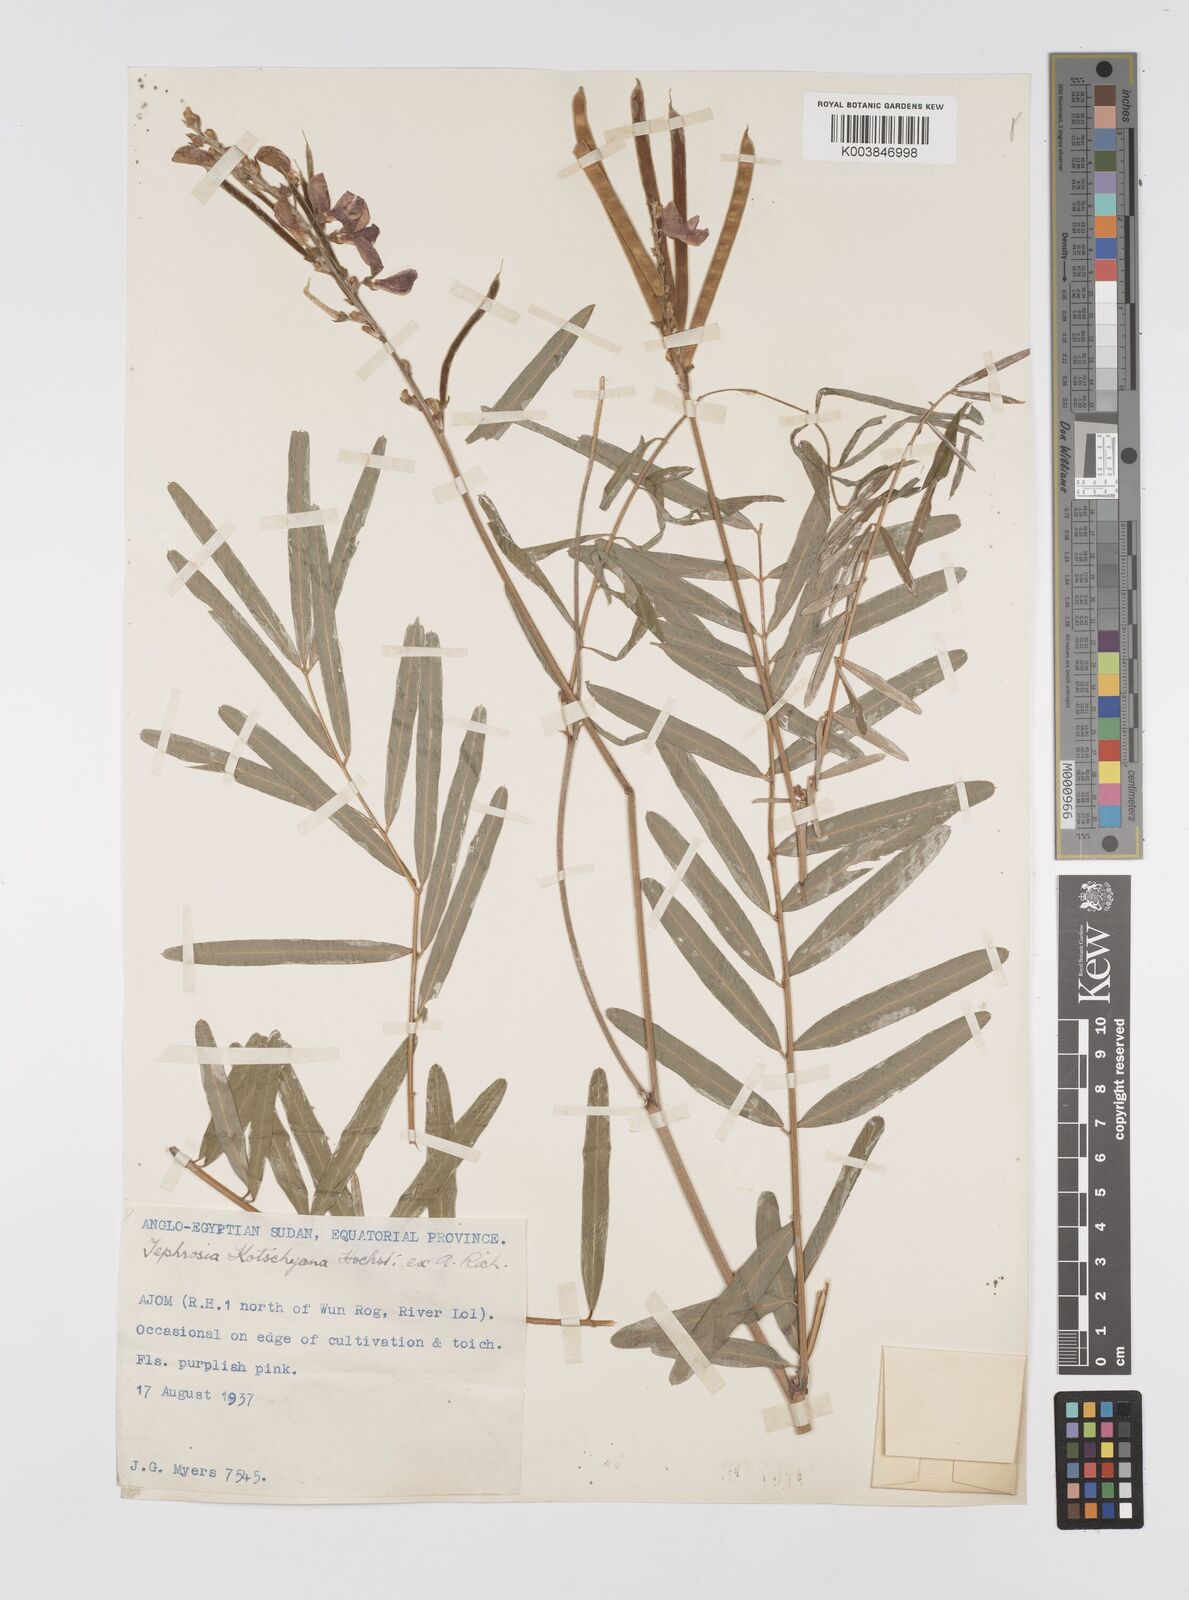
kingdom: Plantae
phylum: Tracheophyta
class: Magnoliopsida
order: Fabales
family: Fabaceae
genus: Tephrosia
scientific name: Tephrosia bracteolata
